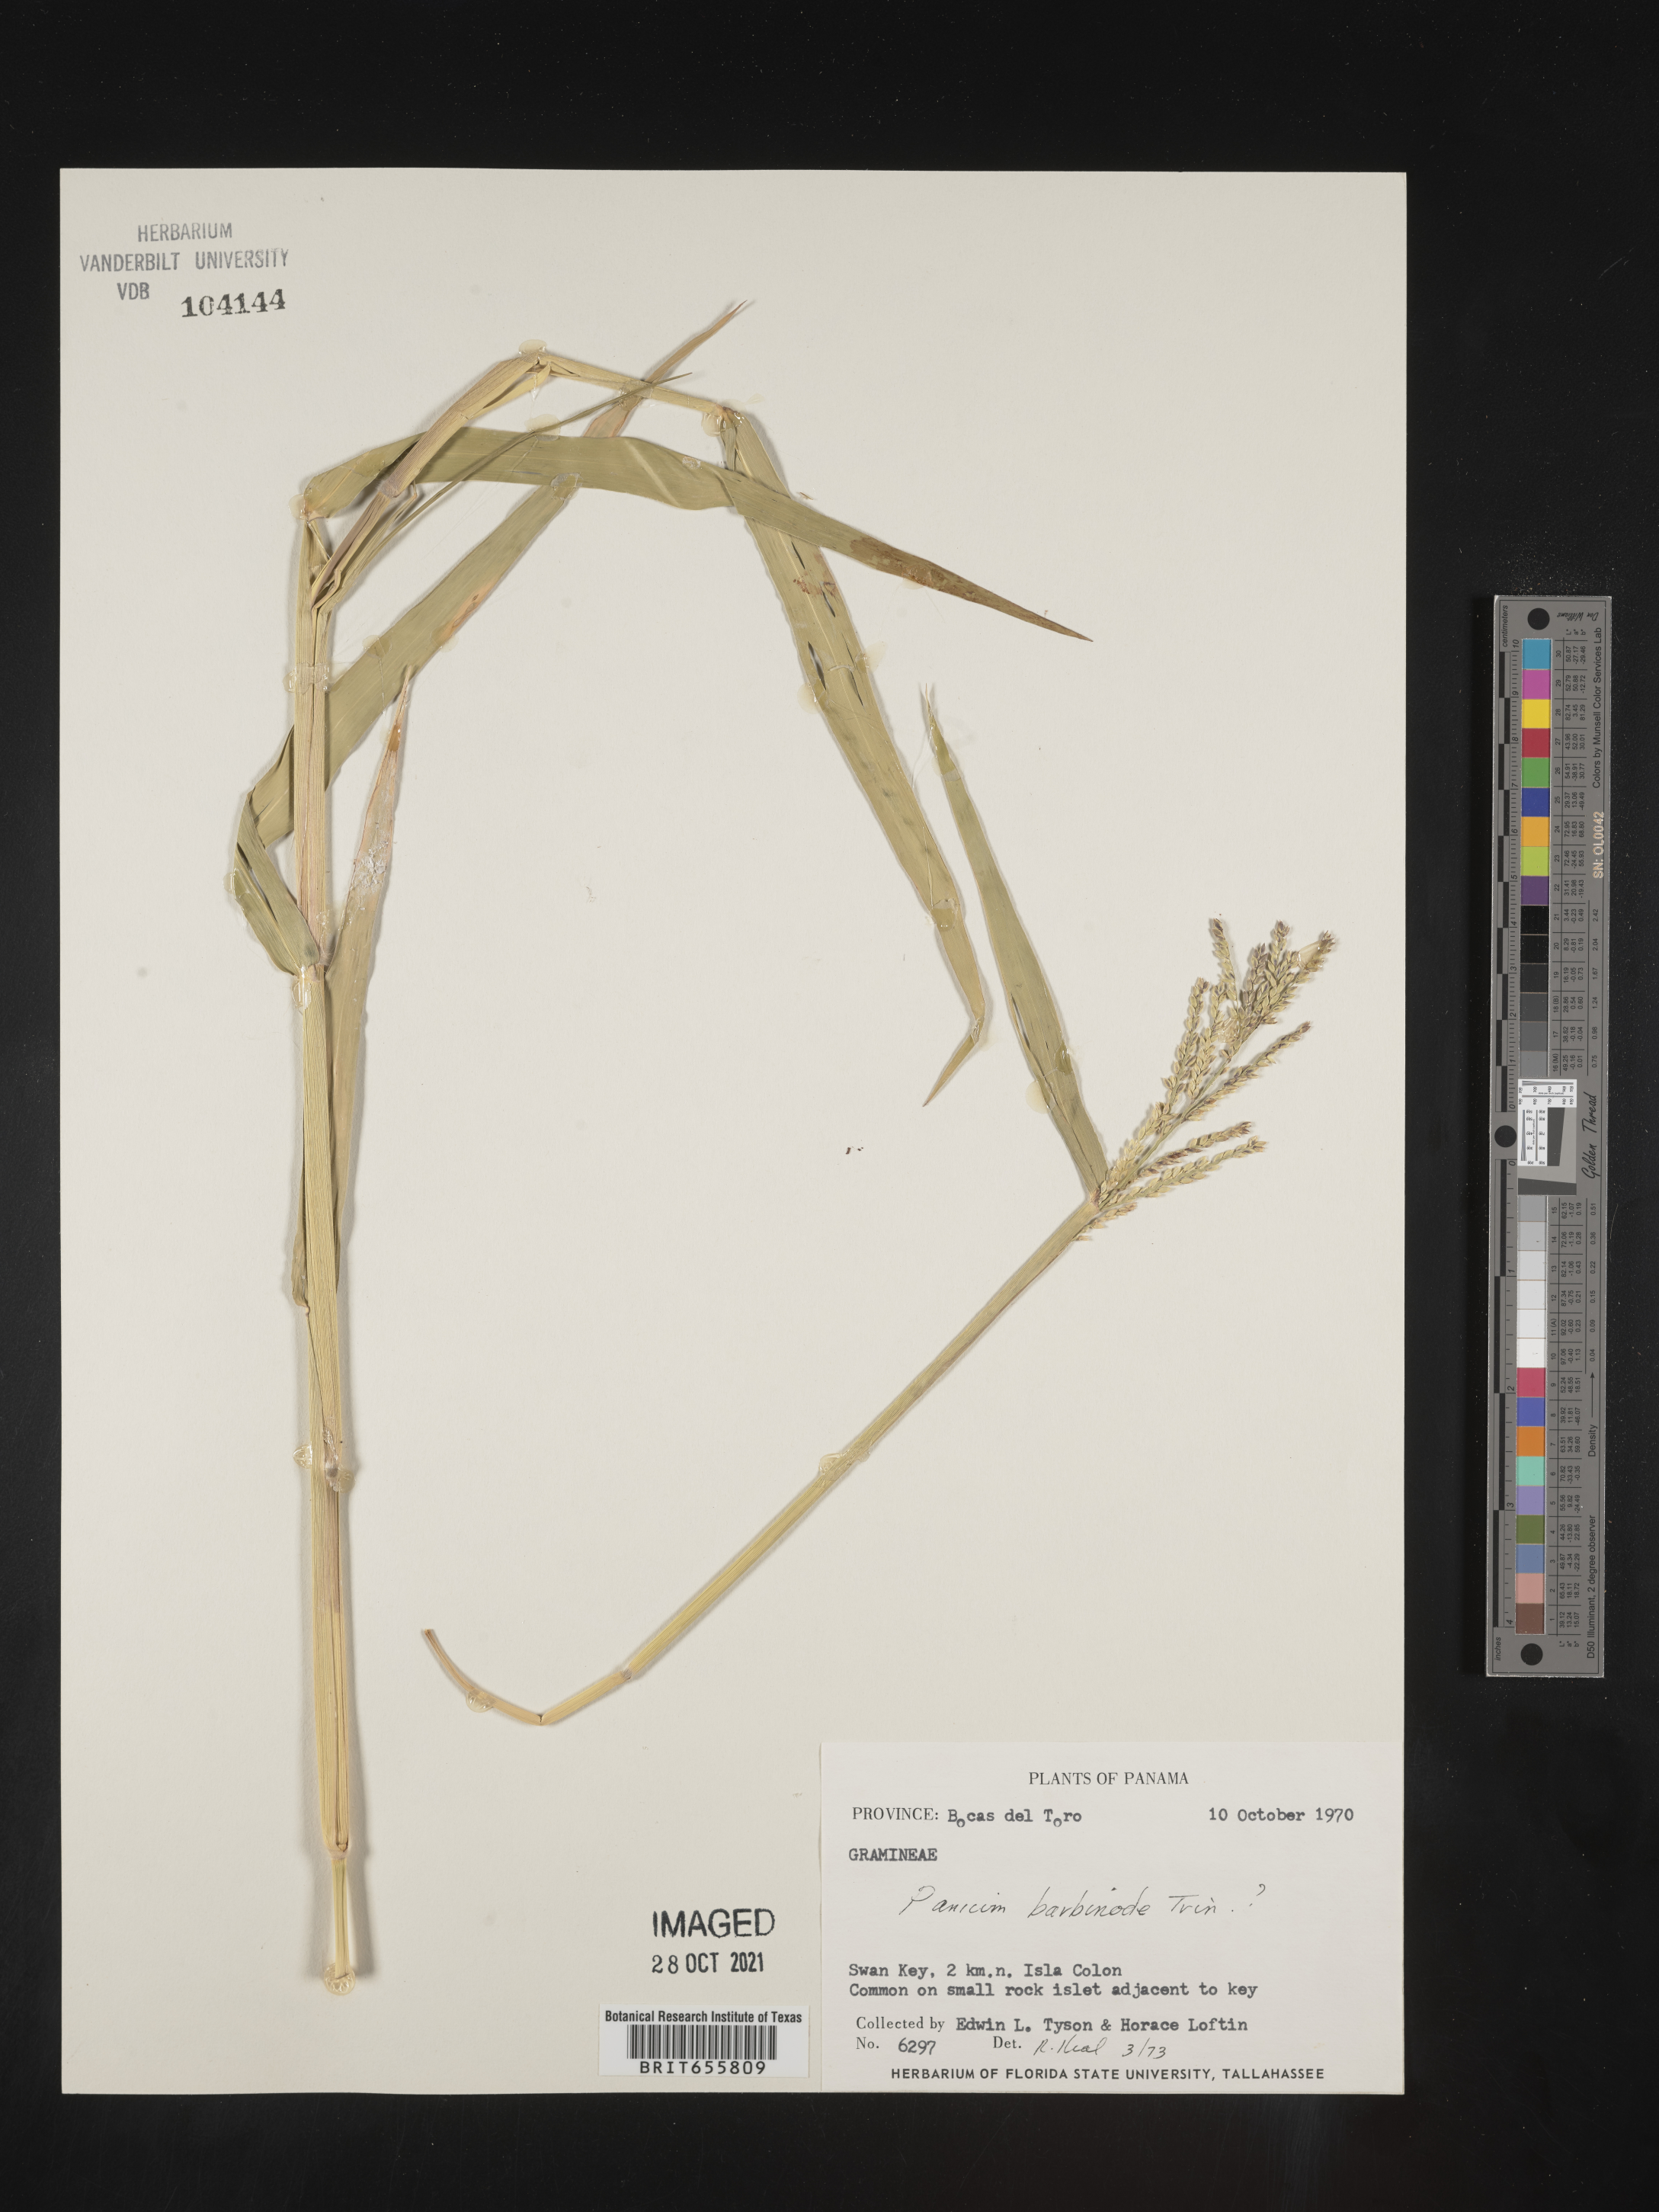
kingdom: Plantae
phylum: Tracheophyta
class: Liliopsida
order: Poales
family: Poaceae
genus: Panicum
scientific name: Panicum
